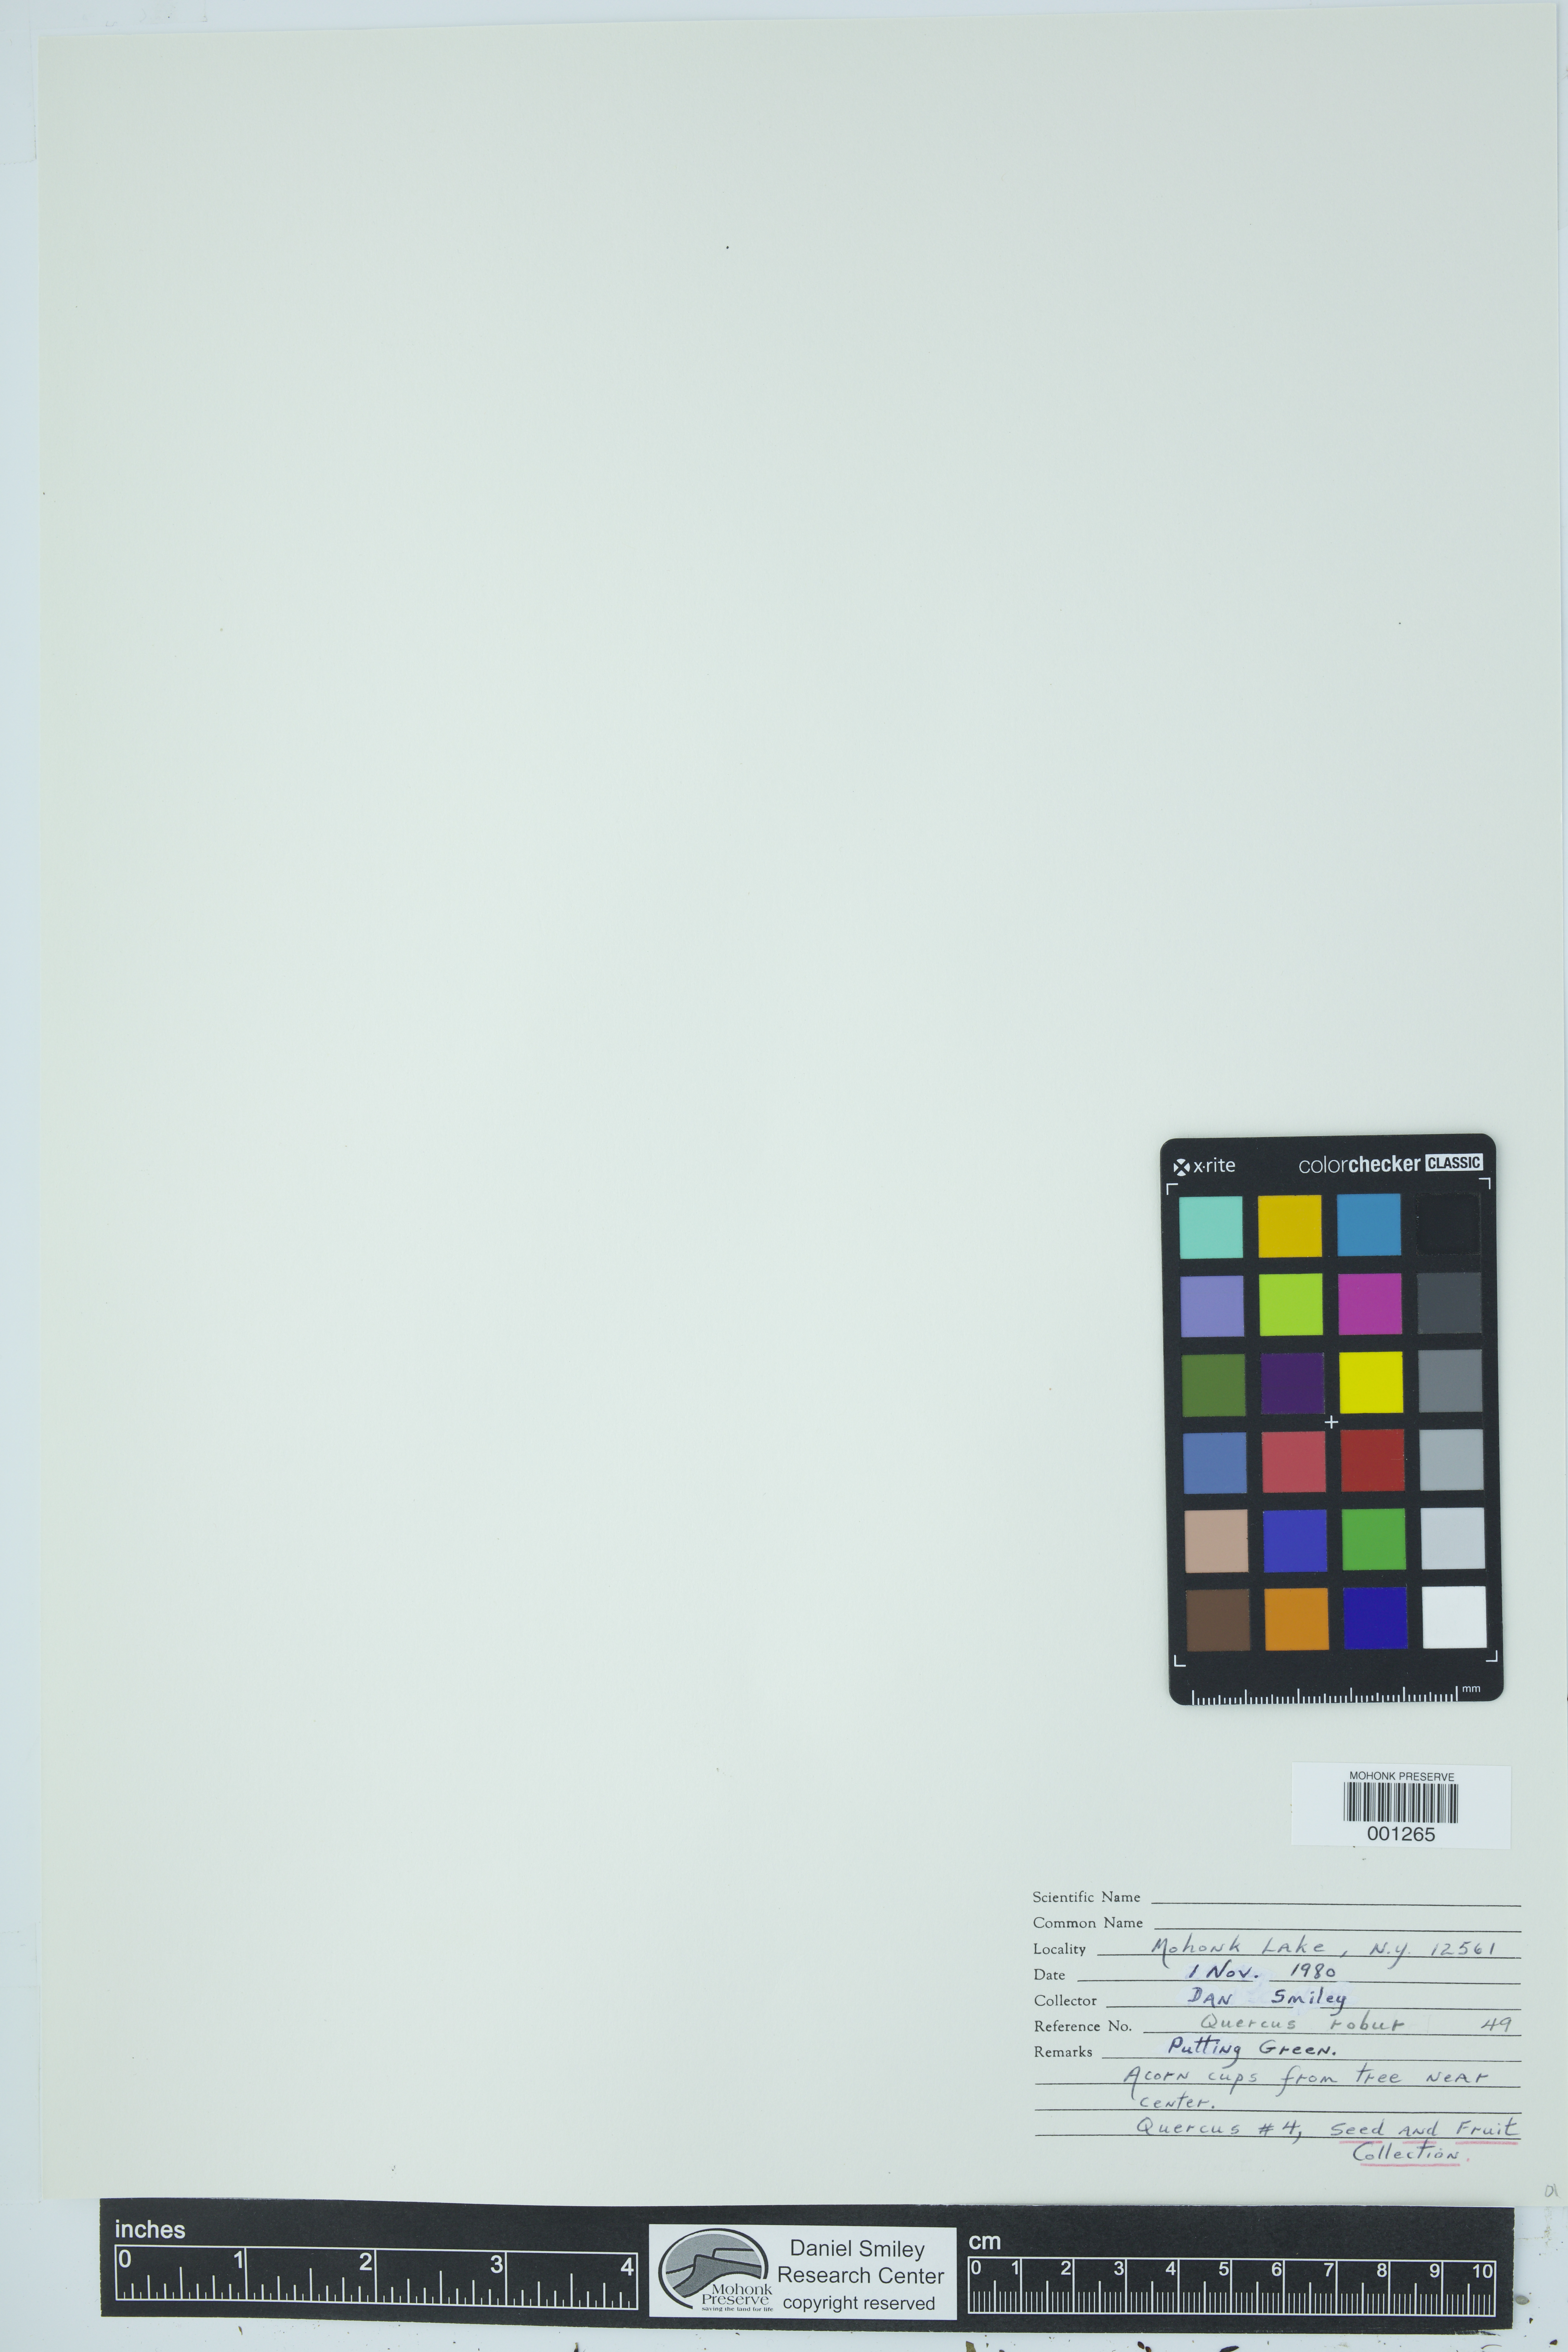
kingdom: Plantae
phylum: Tracheophyta
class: Magnoliopsida
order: Fagales
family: Fagaceae
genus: Quercus
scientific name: Quercus robur
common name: Pedunculate oak
